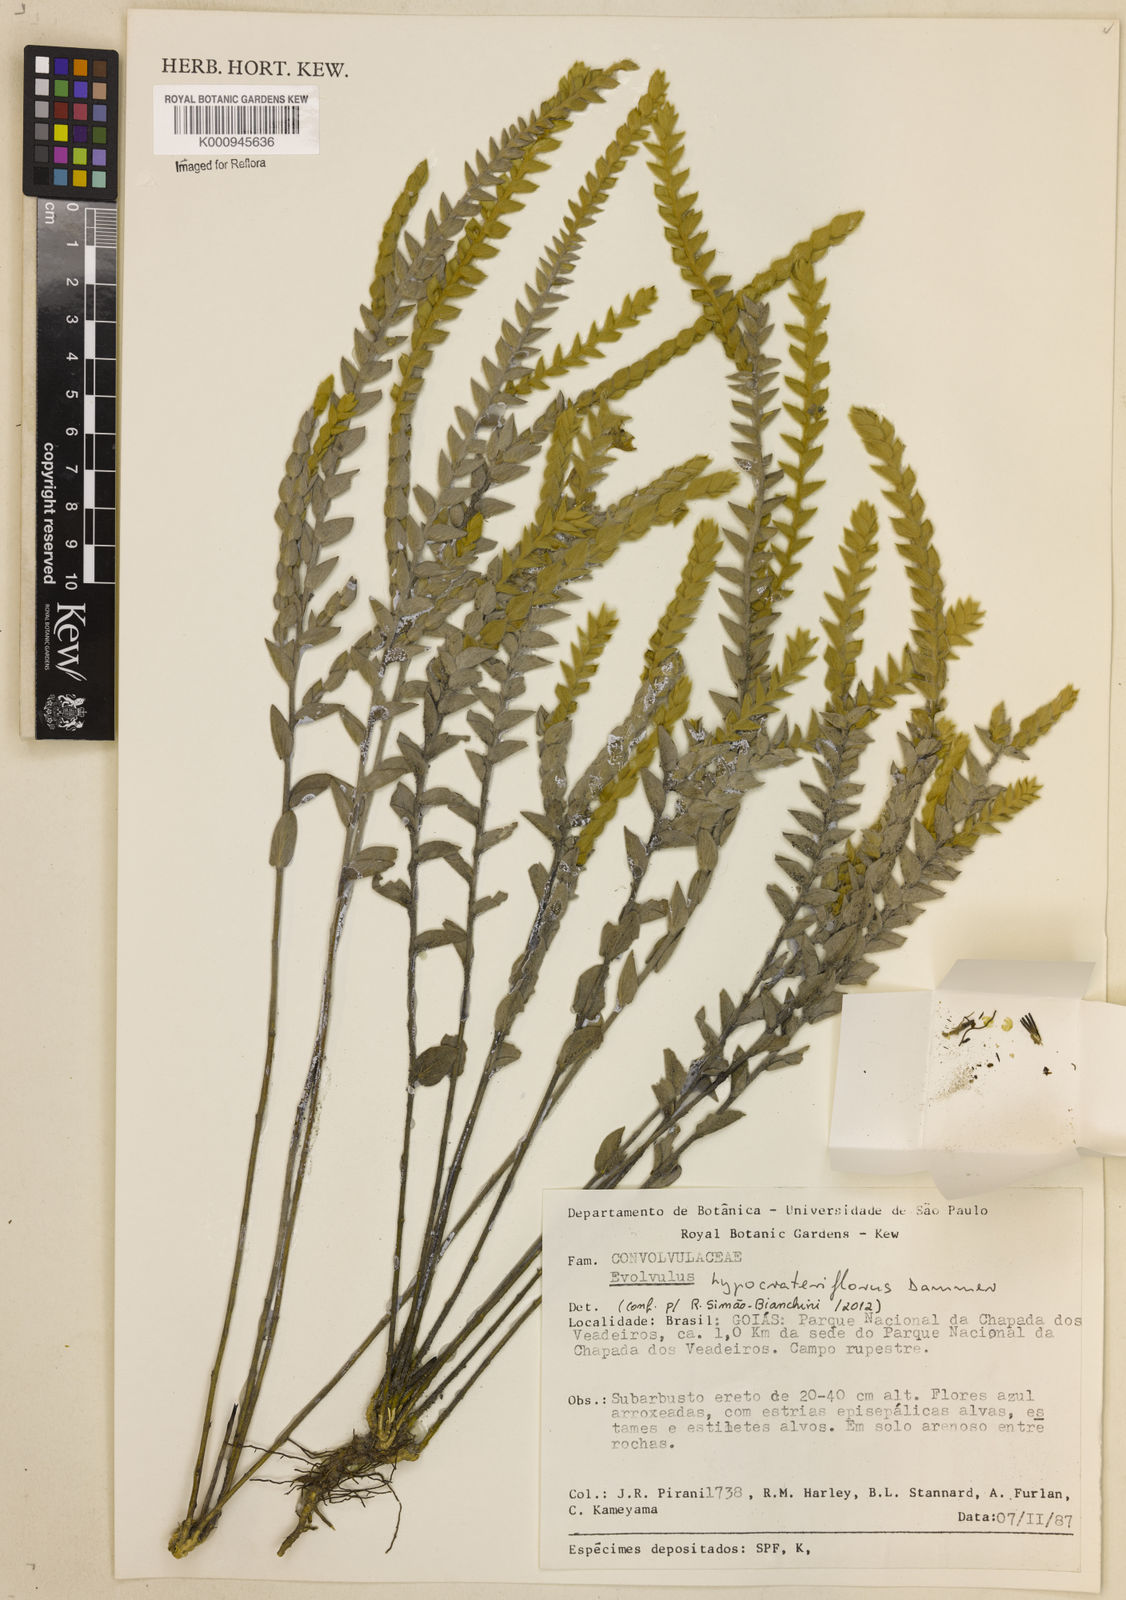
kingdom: Plantae
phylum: Tracheophyta
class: Magnoliopsida
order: Solanales
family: Convolvulaceae
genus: Evolvulus
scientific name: Evolvulus hypocrateriflorus
